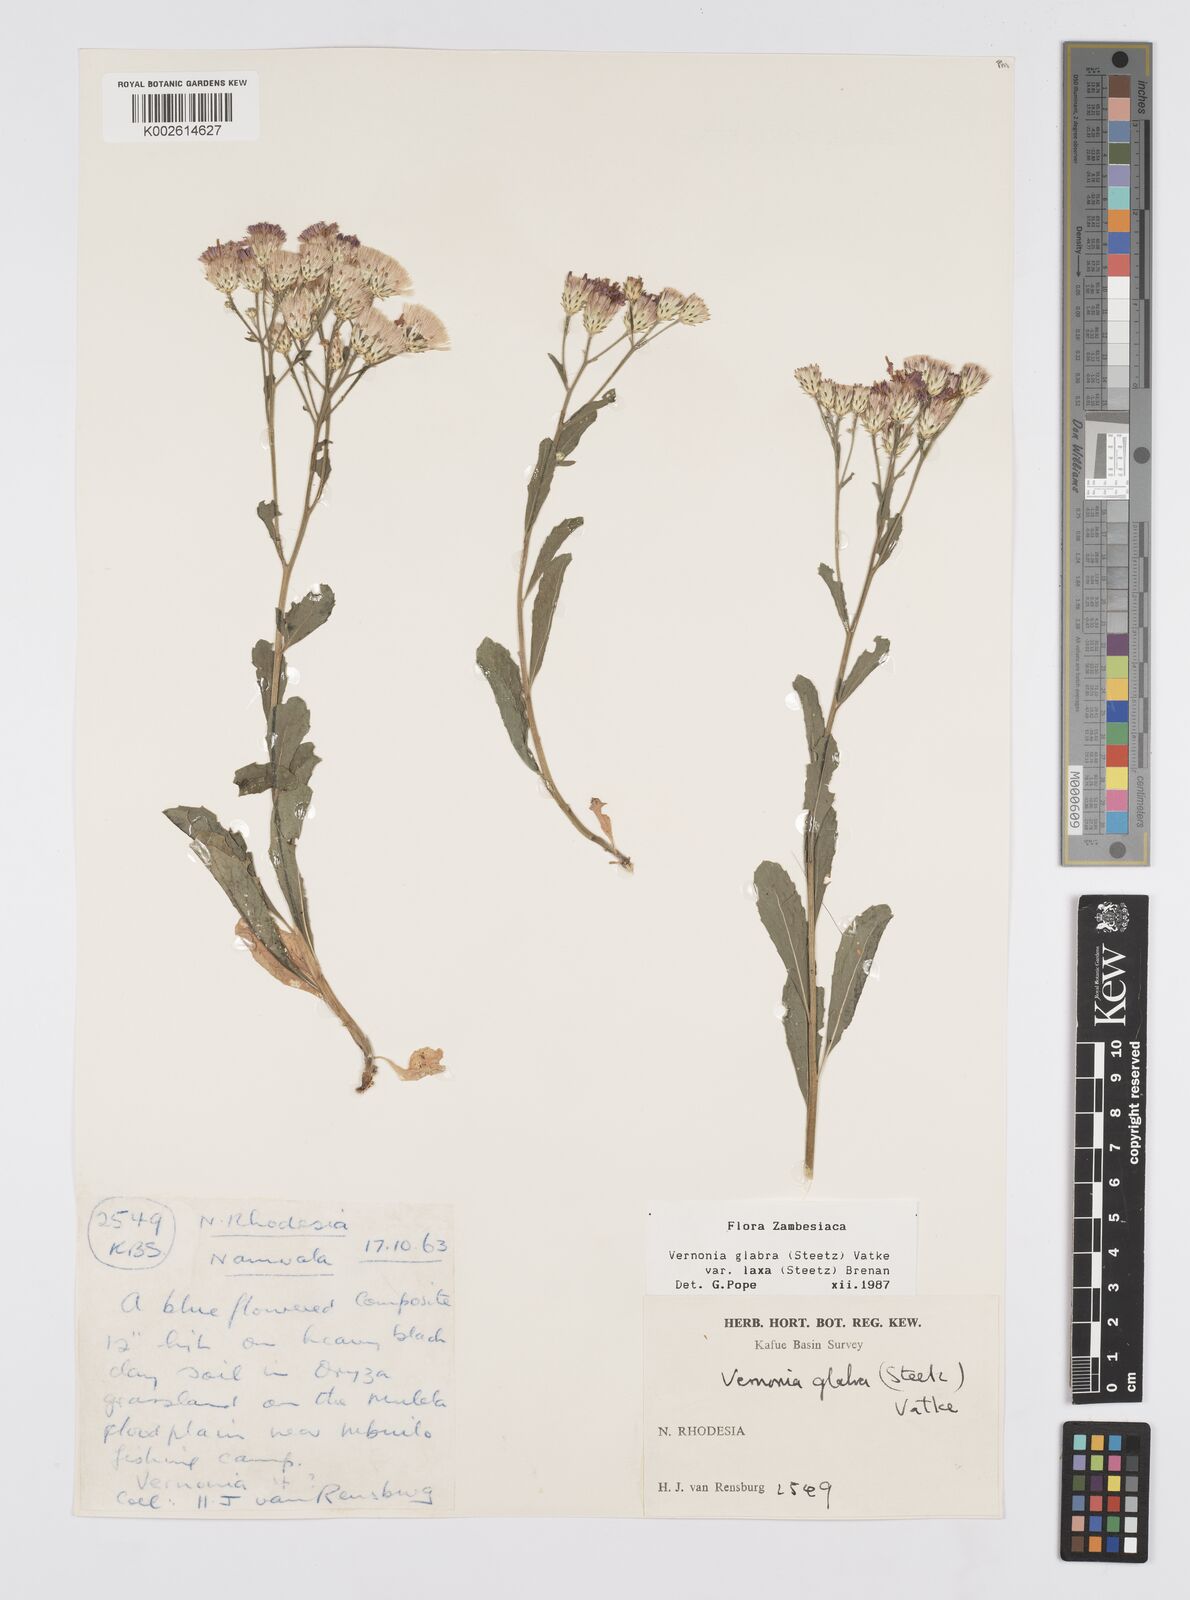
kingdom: Plantae
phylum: Tracheophyta
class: Magnoliopsida
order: Asterales
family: Asteraceae
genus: Linzia
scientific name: Linzia glabra
